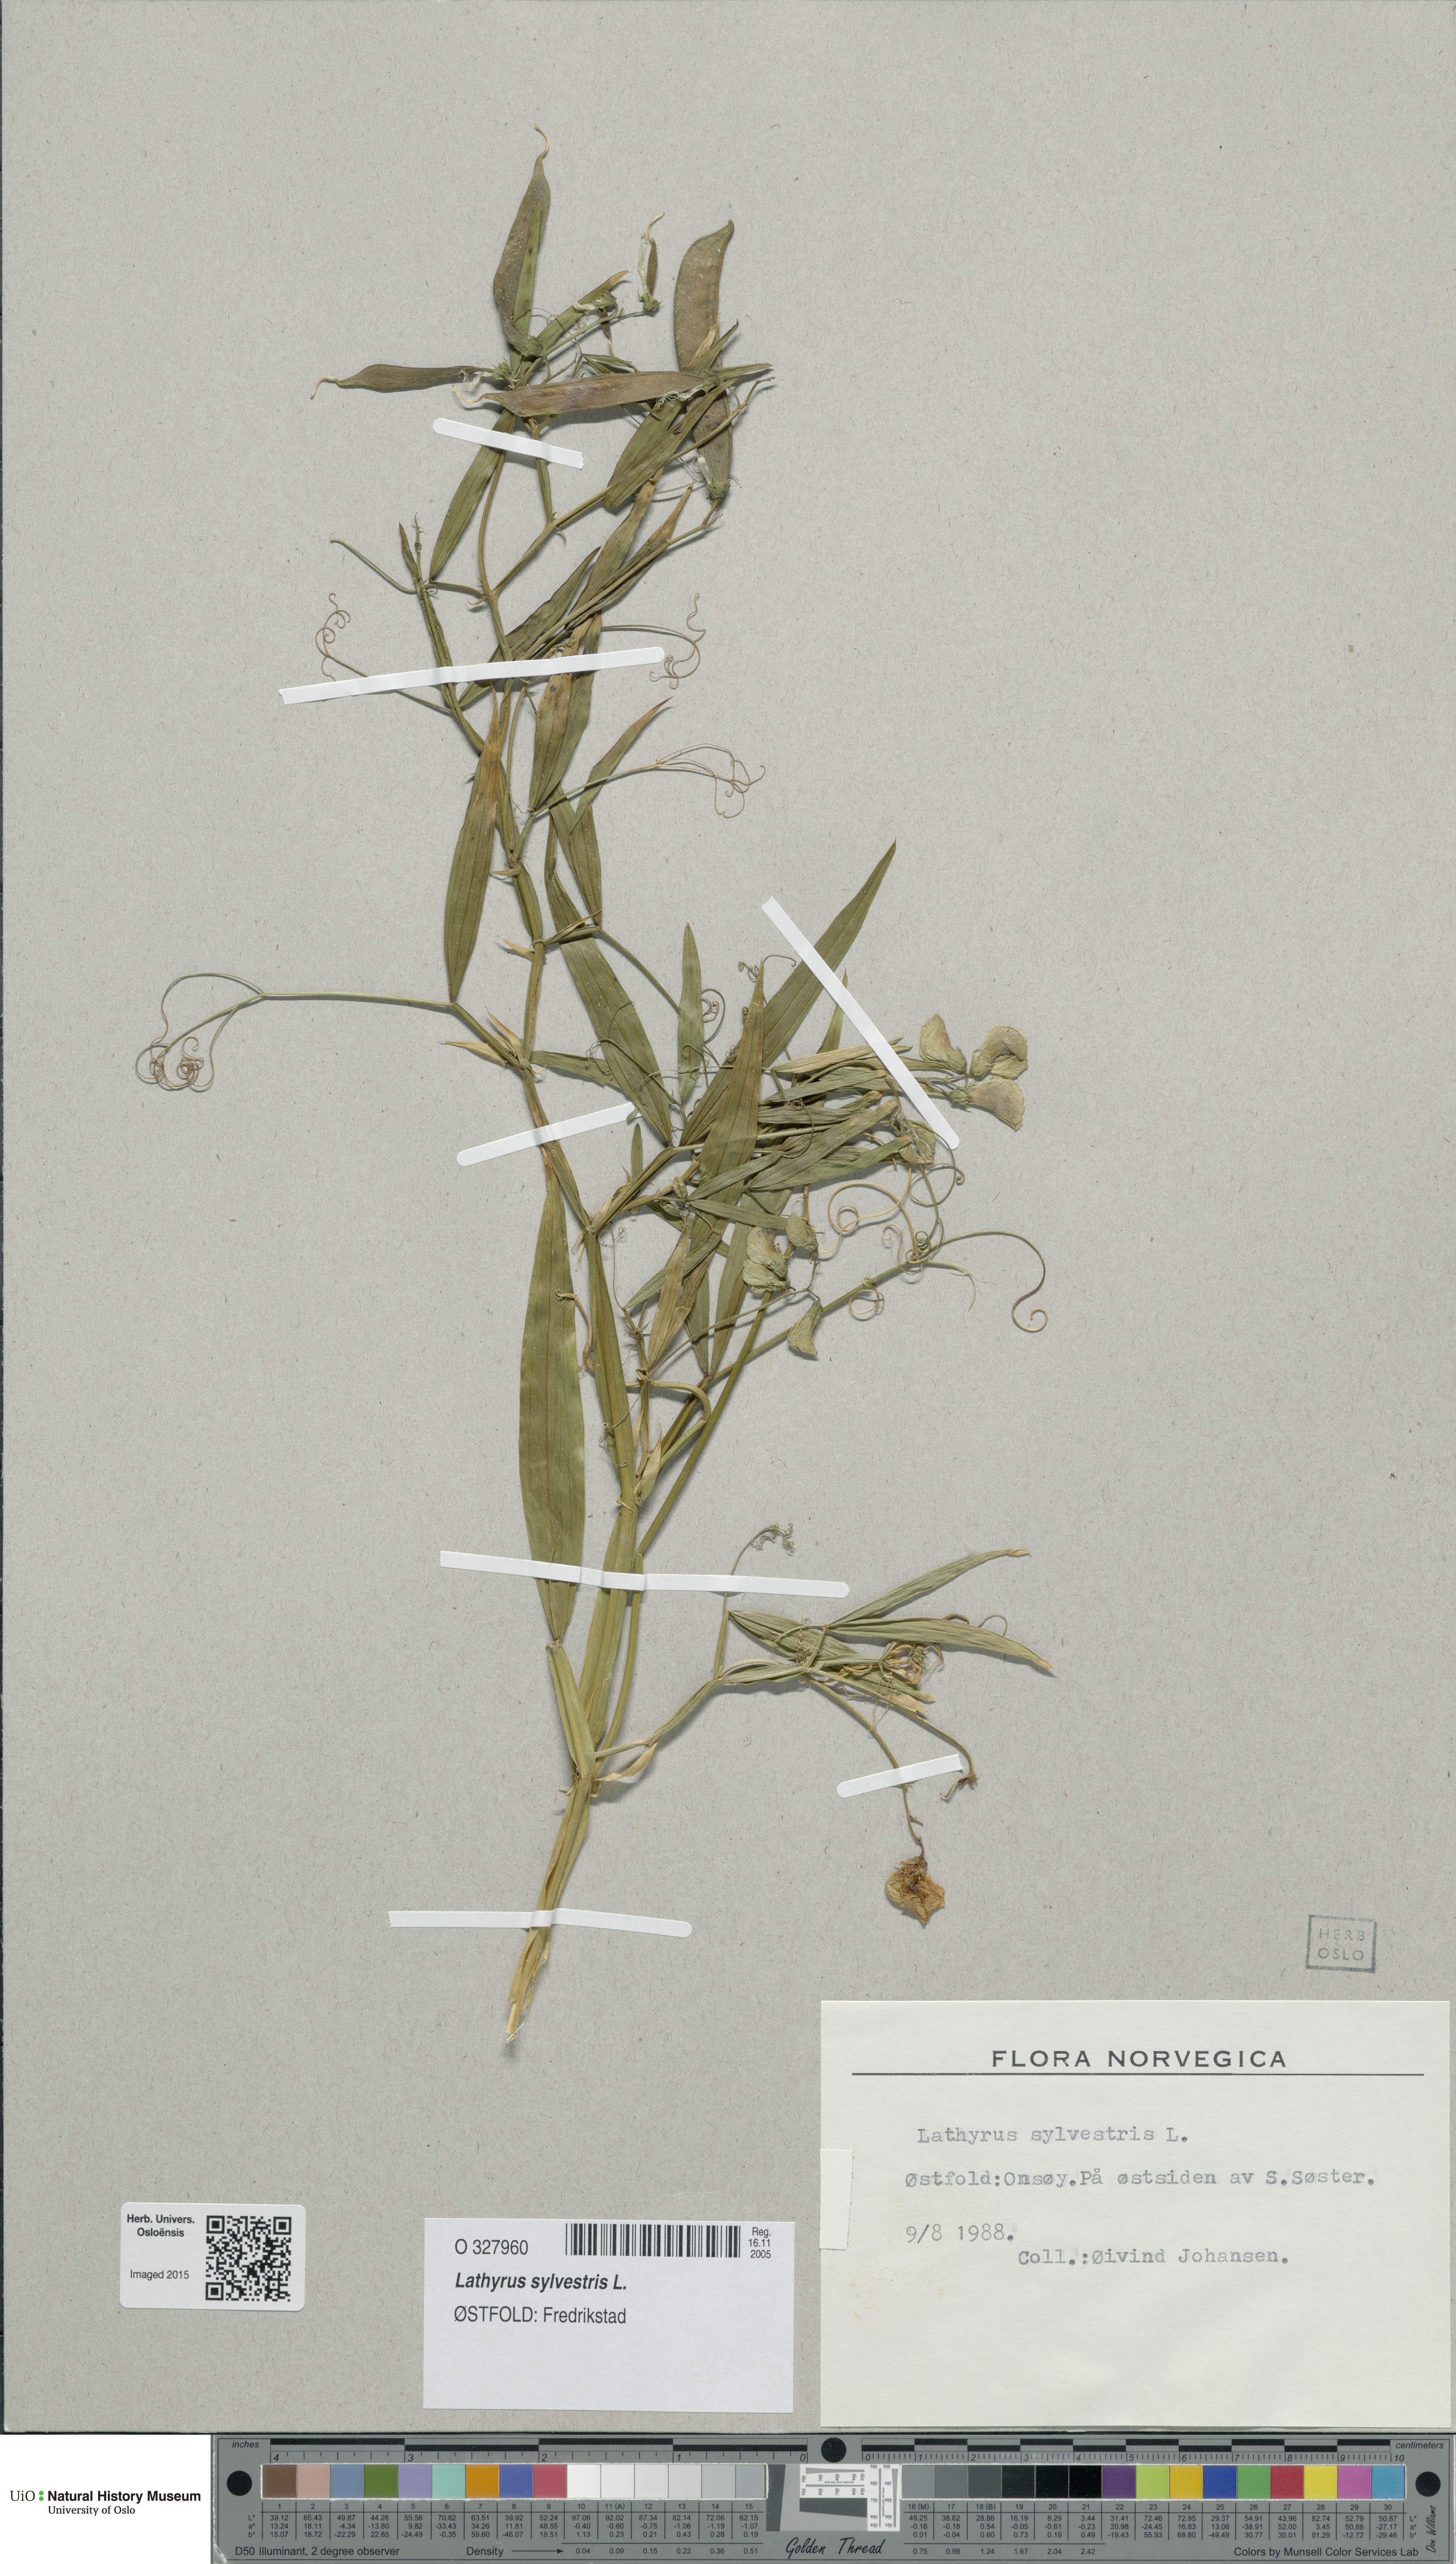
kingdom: Plantae
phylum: Tracheophyta
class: Magnoliopsida
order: Fabales
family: Fabaceae
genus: Lathyrus
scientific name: Lathyrus sylvestris
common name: Flat pea
